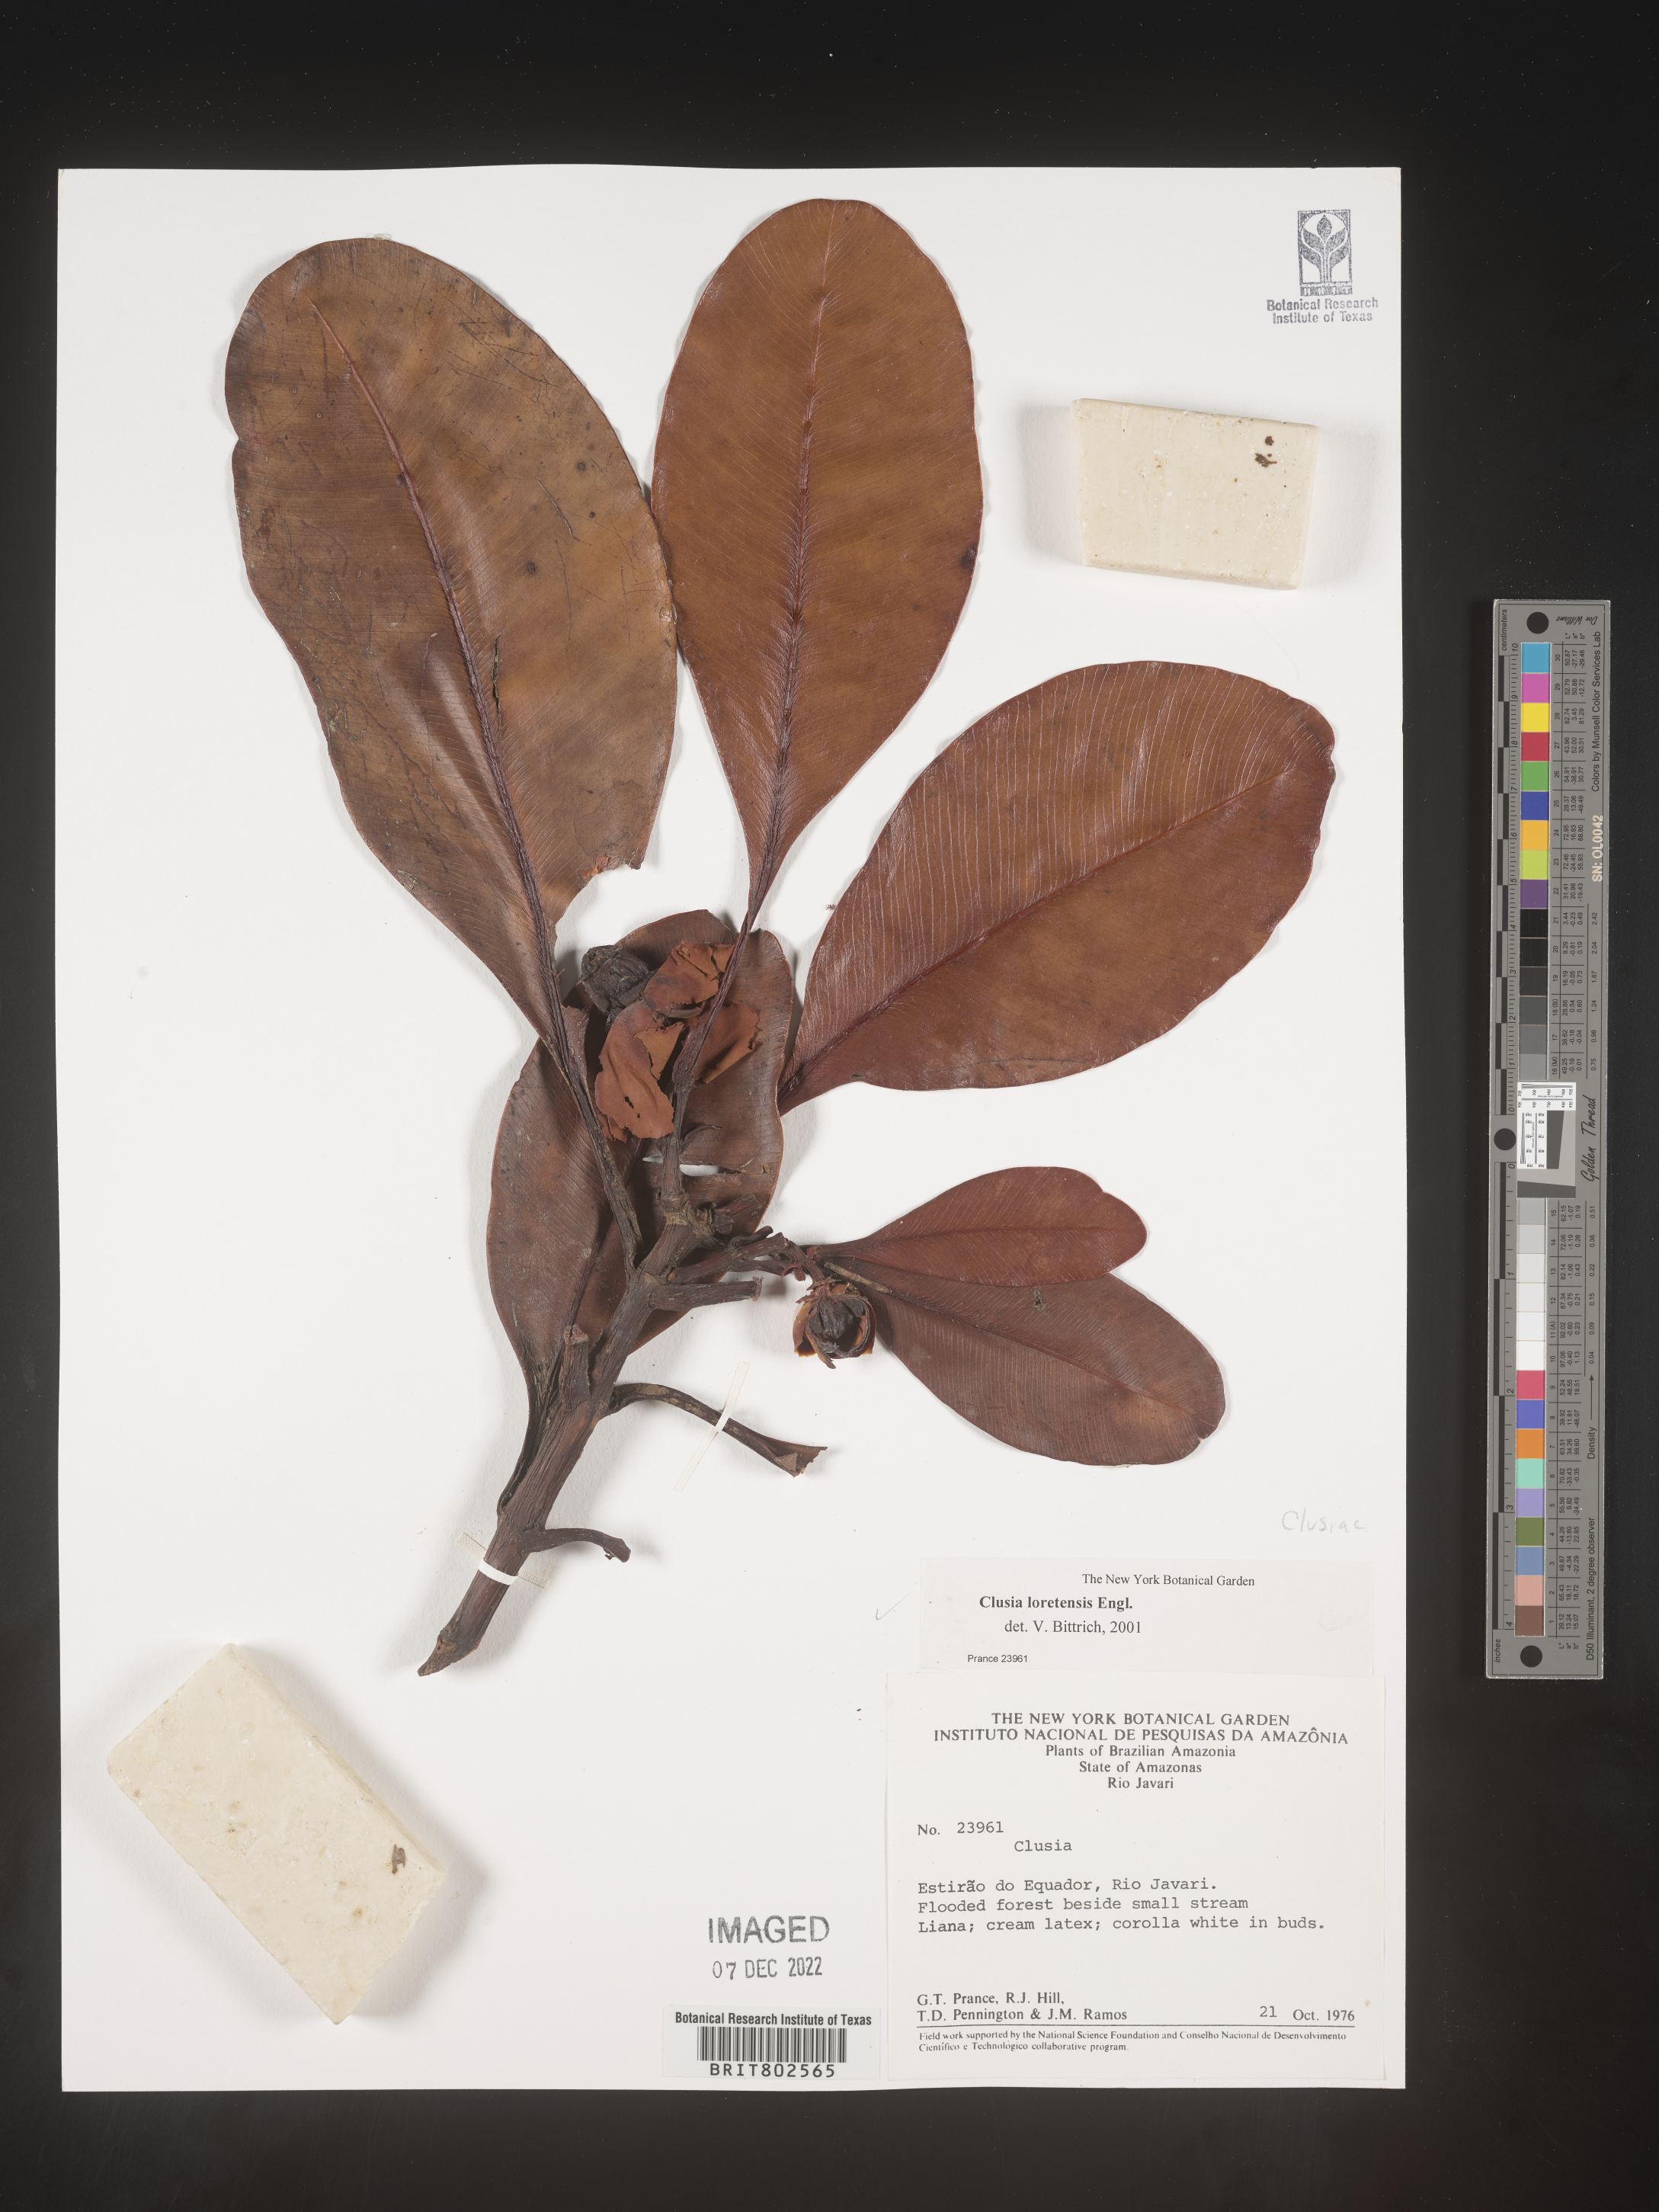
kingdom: Plantae
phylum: Tracheophyta
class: Magnoliopsida
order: Malpighiales
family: Clusiaceae
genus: Clusia
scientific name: Clusia loretensis
